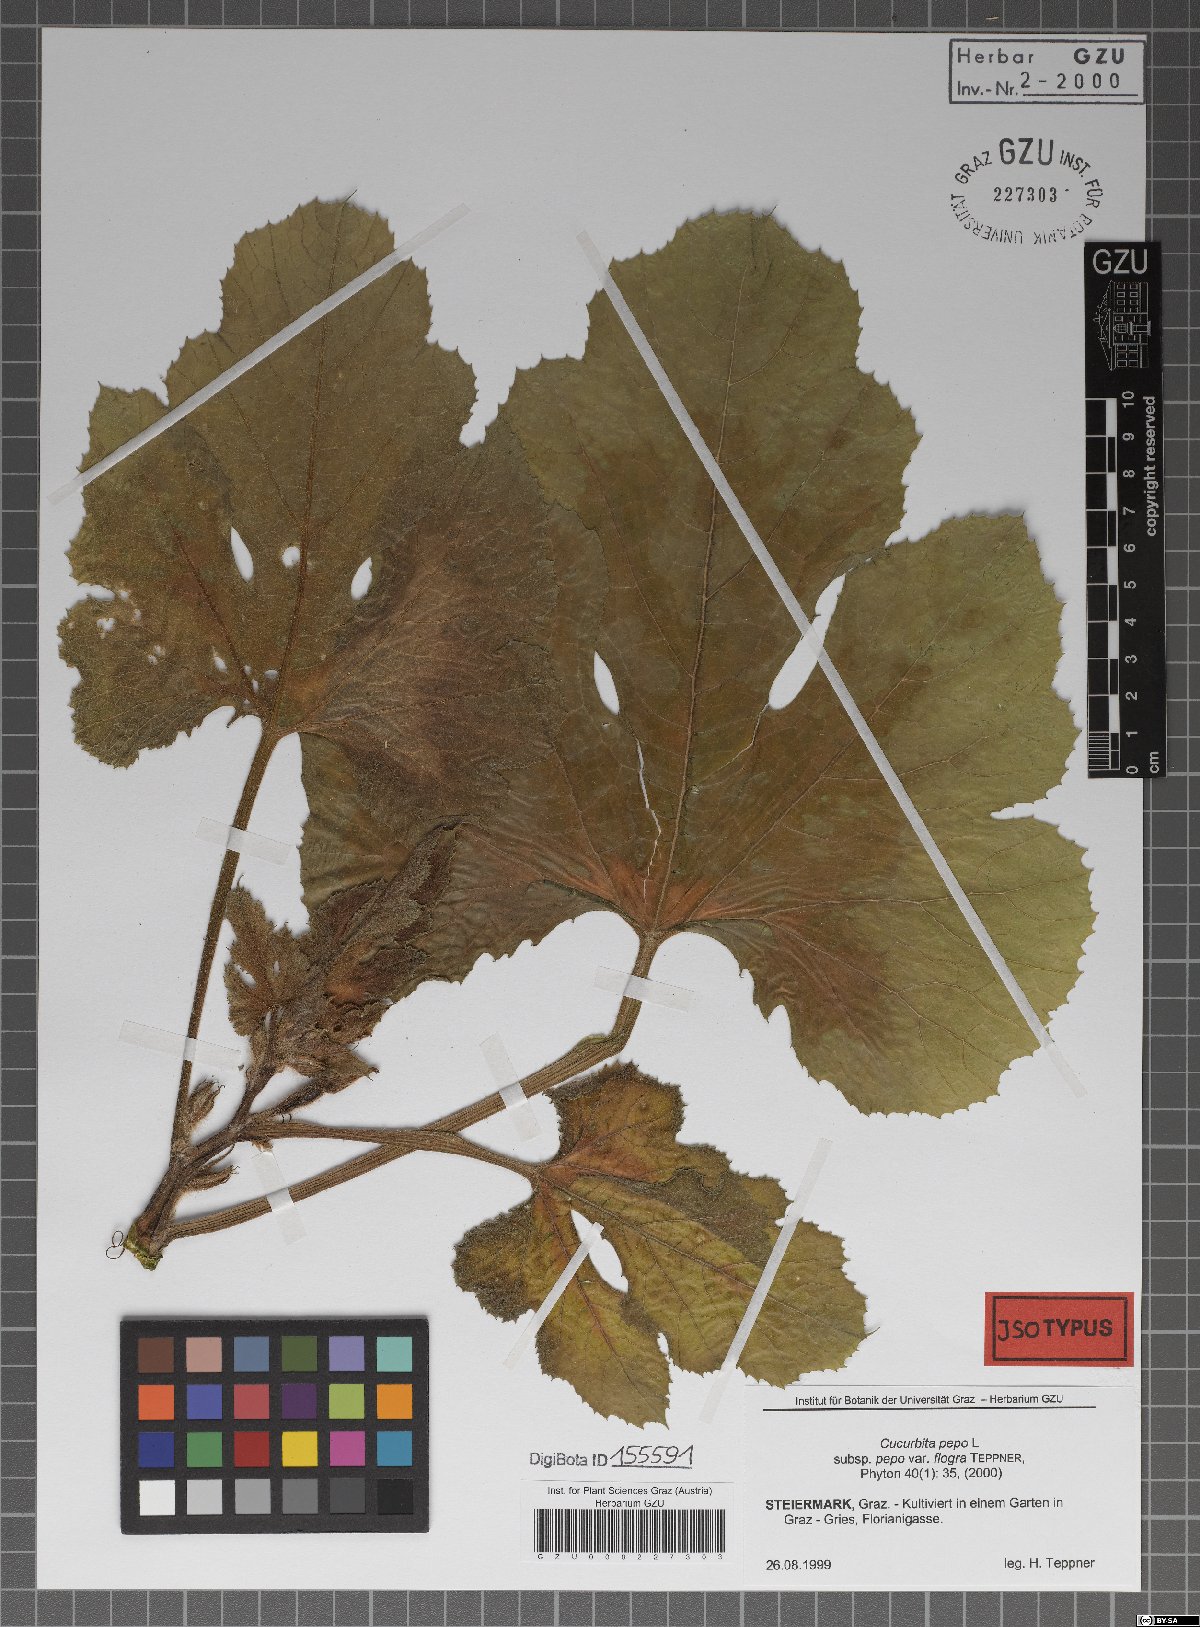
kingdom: Plantae
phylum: Tracheophyta
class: Magnoliopsida
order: Cucurbitales
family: Cucurbitaceae
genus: Cucurbita
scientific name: Cucurbita pepo
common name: Marrow
